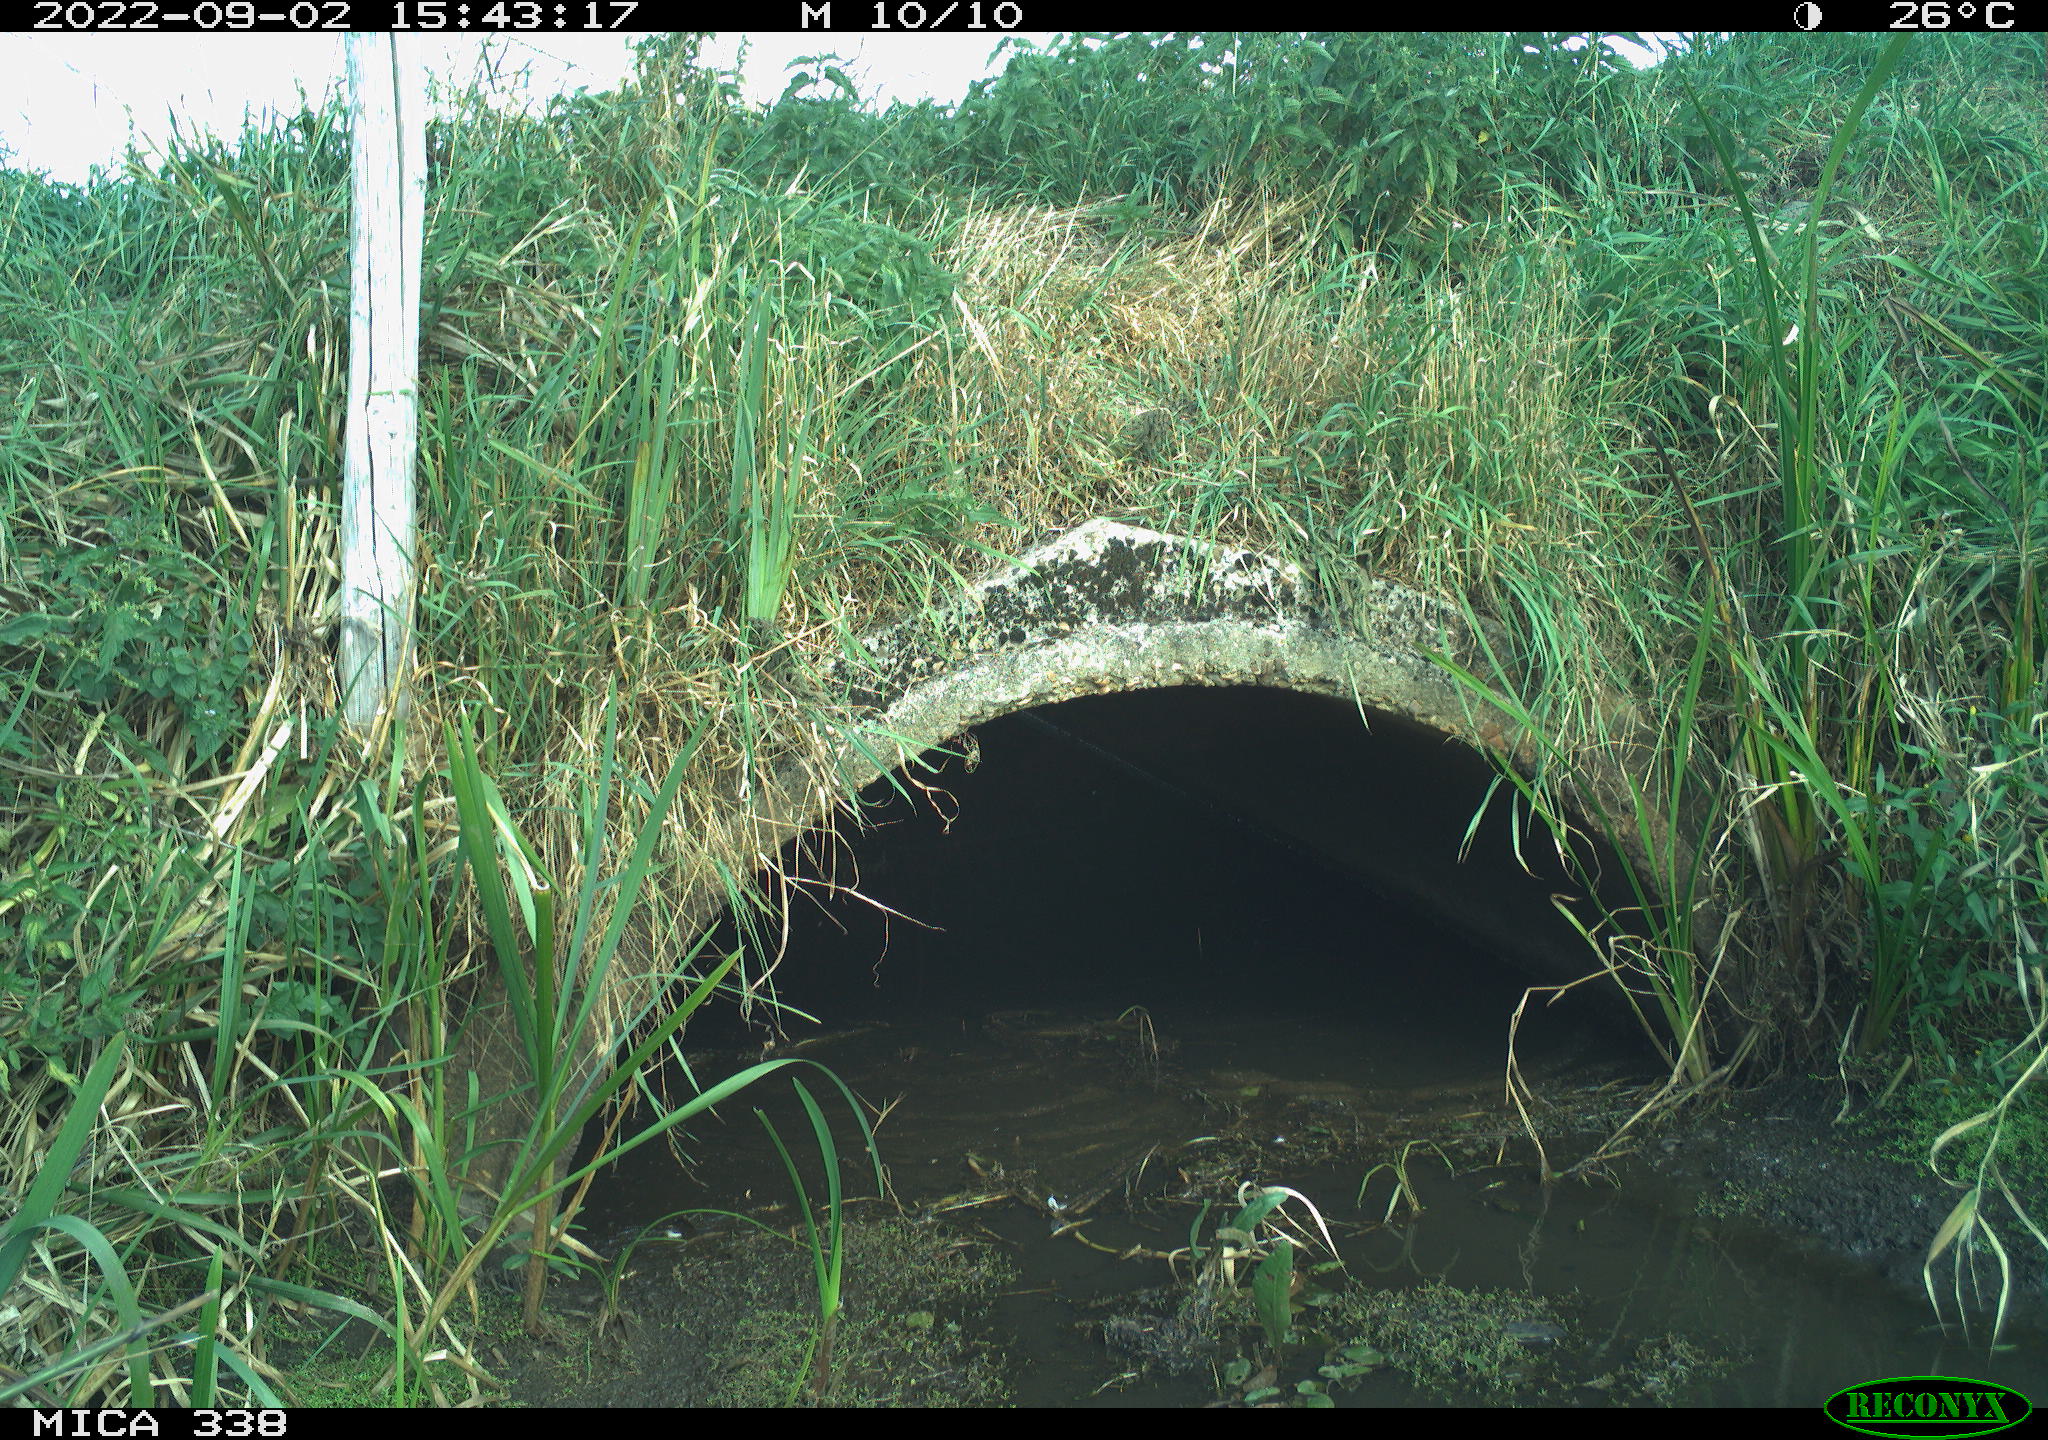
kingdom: Animalia
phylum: Chordata
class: Aves
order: Pelecaniformes
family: Ardeidae
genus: Ardea
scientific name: Ardea cinerea
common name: Grey heron
